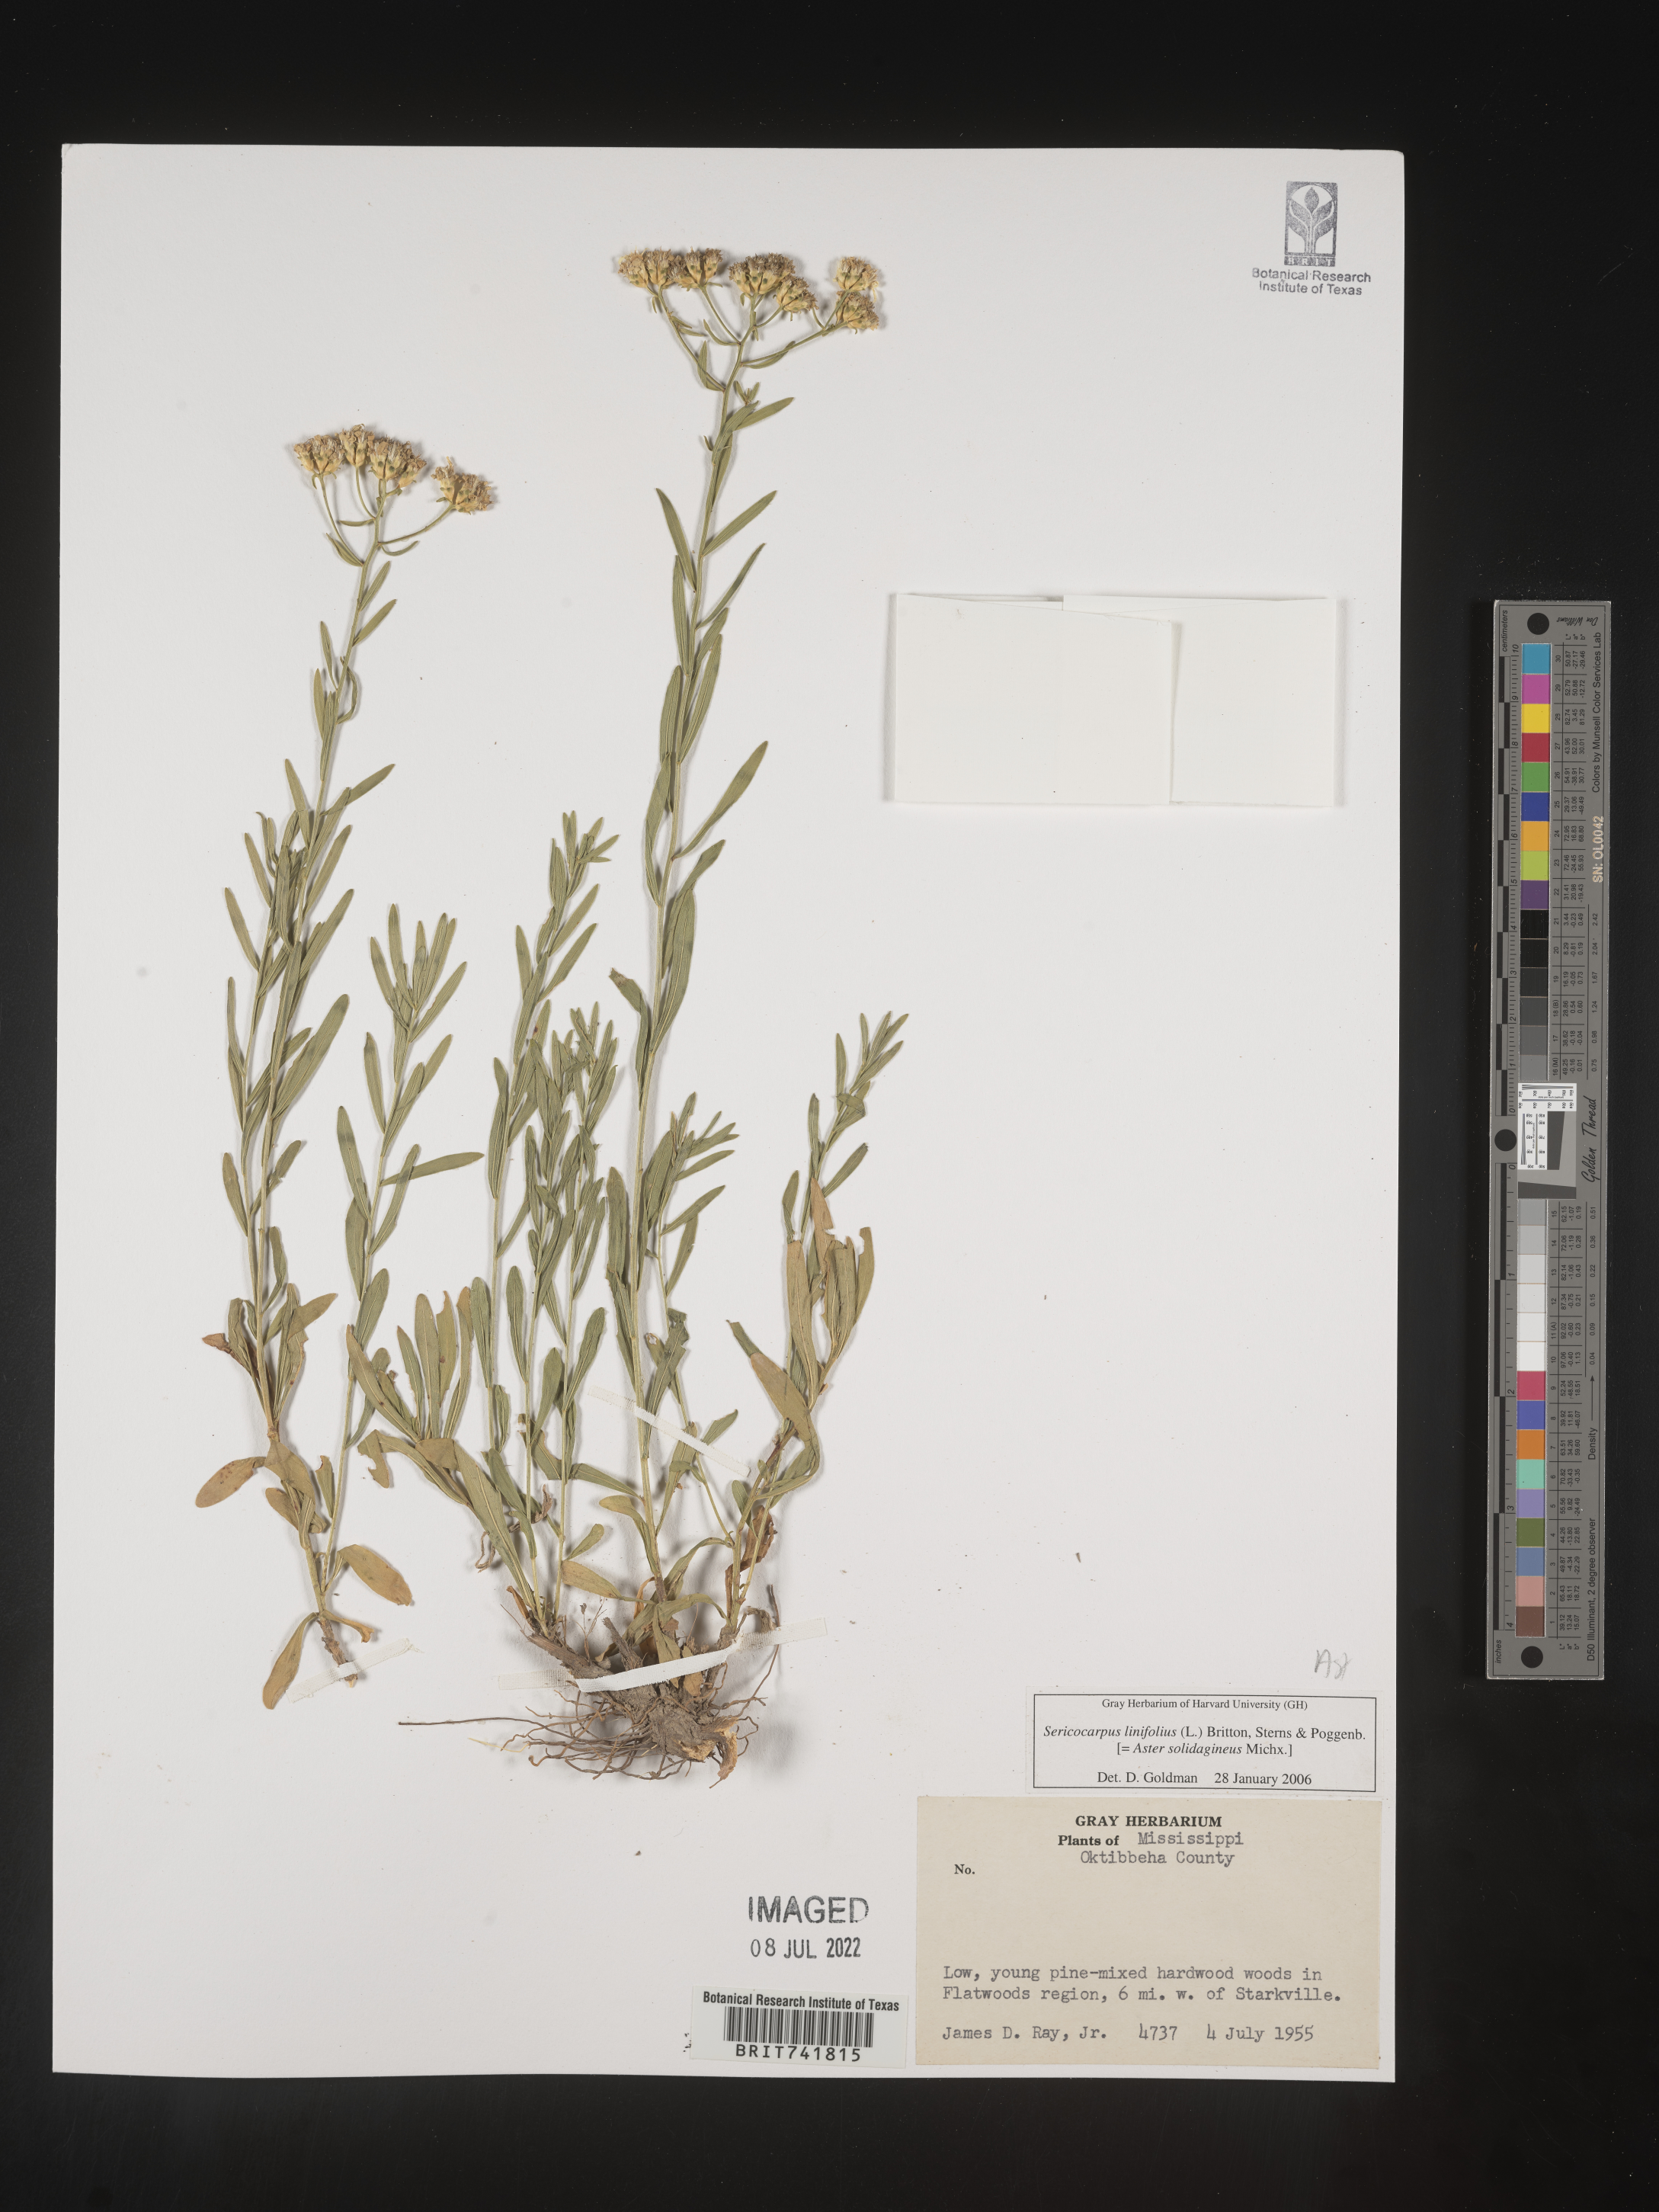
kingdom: Plantae
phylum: Tracheophyta
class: Magnoliopsida
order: Asterales
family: Asteraceae
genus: Sericocarpus
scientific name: Sericocarpus linifolius
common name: Narrow-leaf aster
